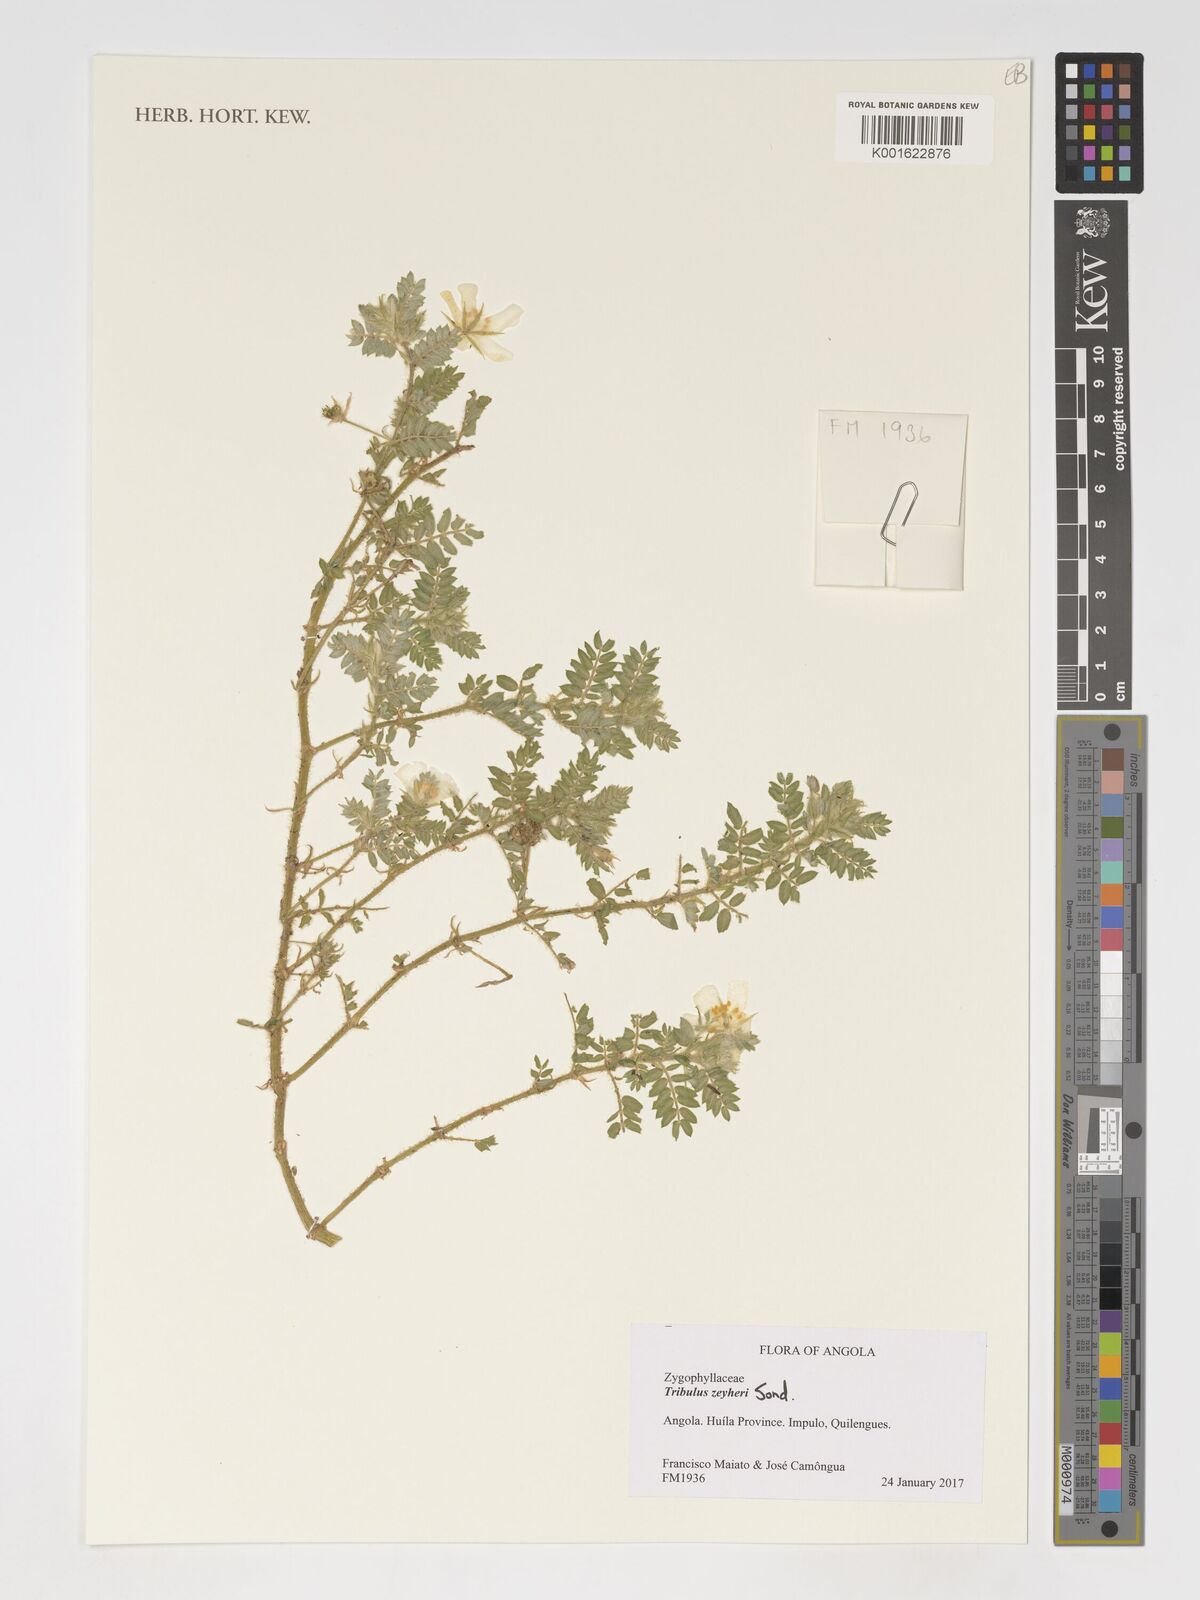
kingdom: Plantae
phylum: Tracheophyta
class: Magnoliopsida
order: Zygophyllales
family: Zygophyllaceae
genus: Tribulus
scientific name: Tribulus zeyheri
